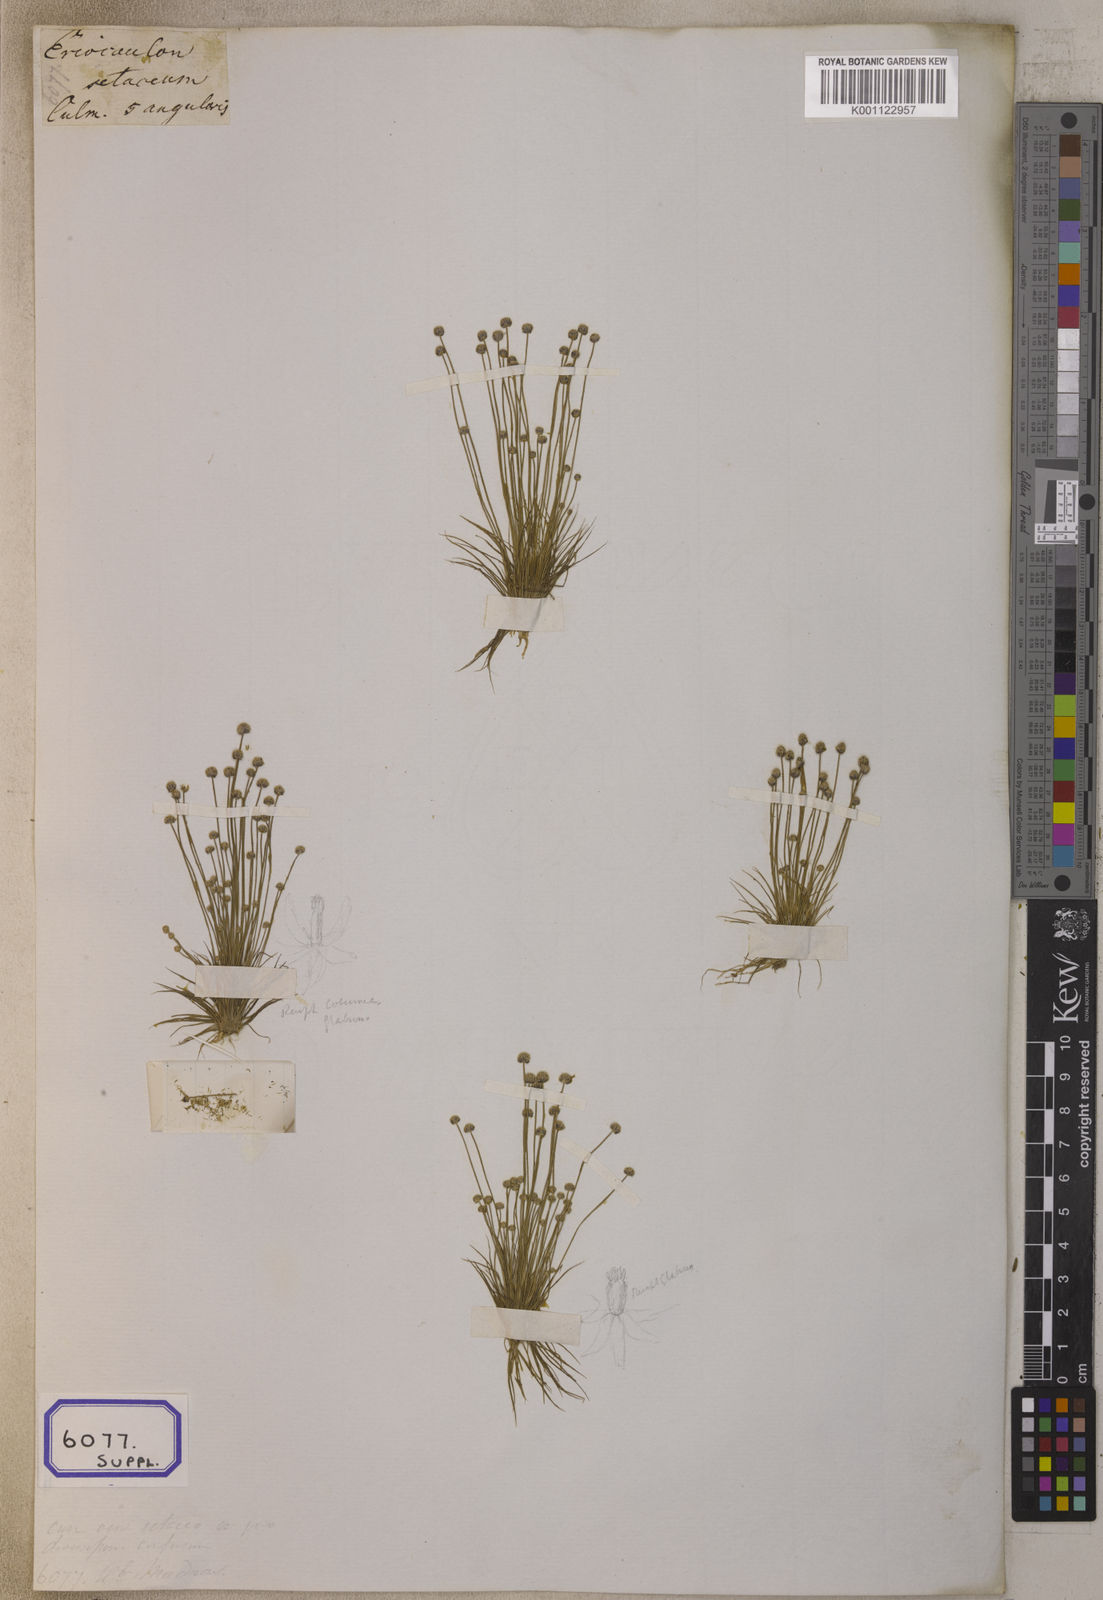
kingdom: Plantae
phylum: Tracheophyta
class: Liliopsida
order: Poales
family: Eriocaulaceae
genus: Eriocaulon
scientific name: Eriocaulon setaceum
